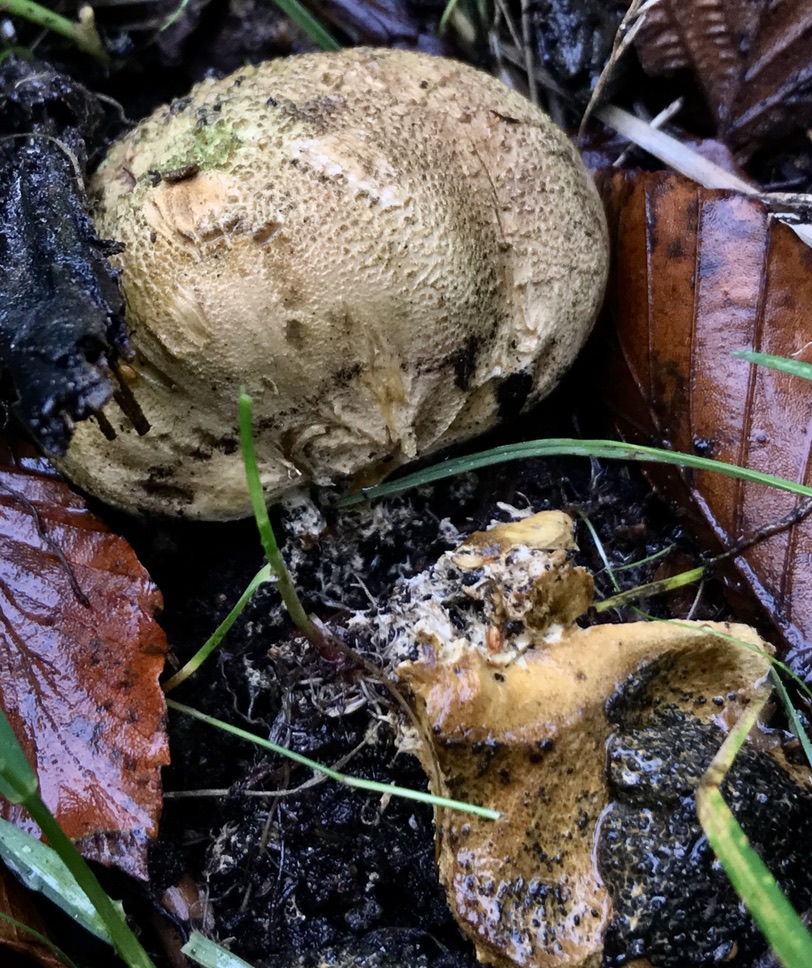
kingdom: Fungi
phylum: Basidiomycota
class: Agaricomycetes
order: Boletales
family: Sclerodermataceae
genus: Scleroderma
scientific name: Scleroderma citrinum
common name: almindelig bruskbold
